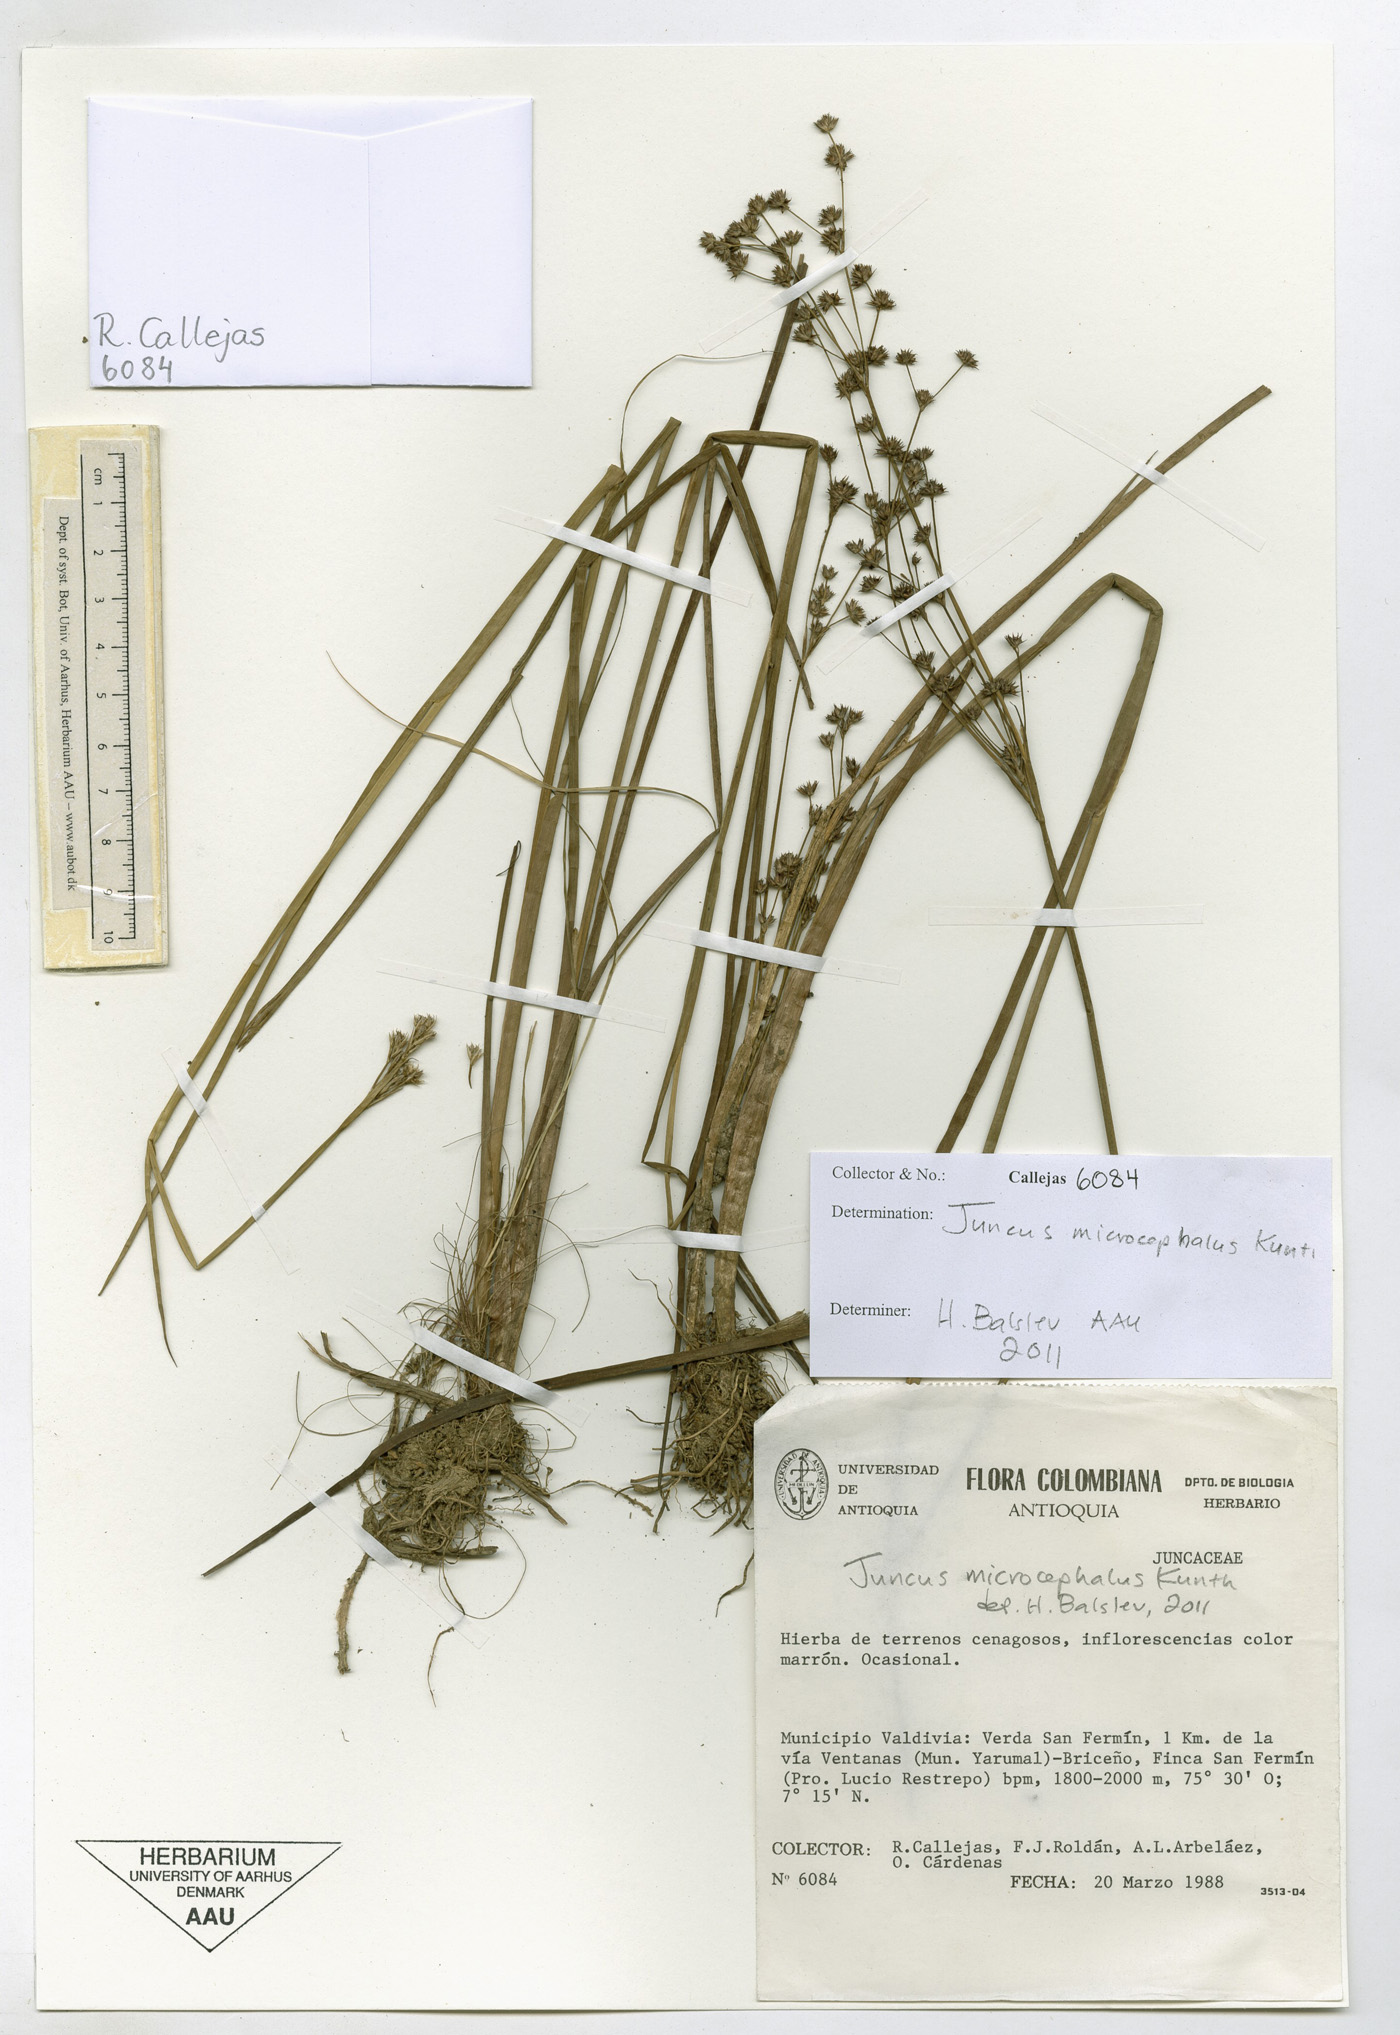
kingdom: Plantae
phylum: Tracheophyta
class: Liliopsida
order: Poales
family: Juncaceae
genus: Juncus
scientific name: Juncus microcephalus
